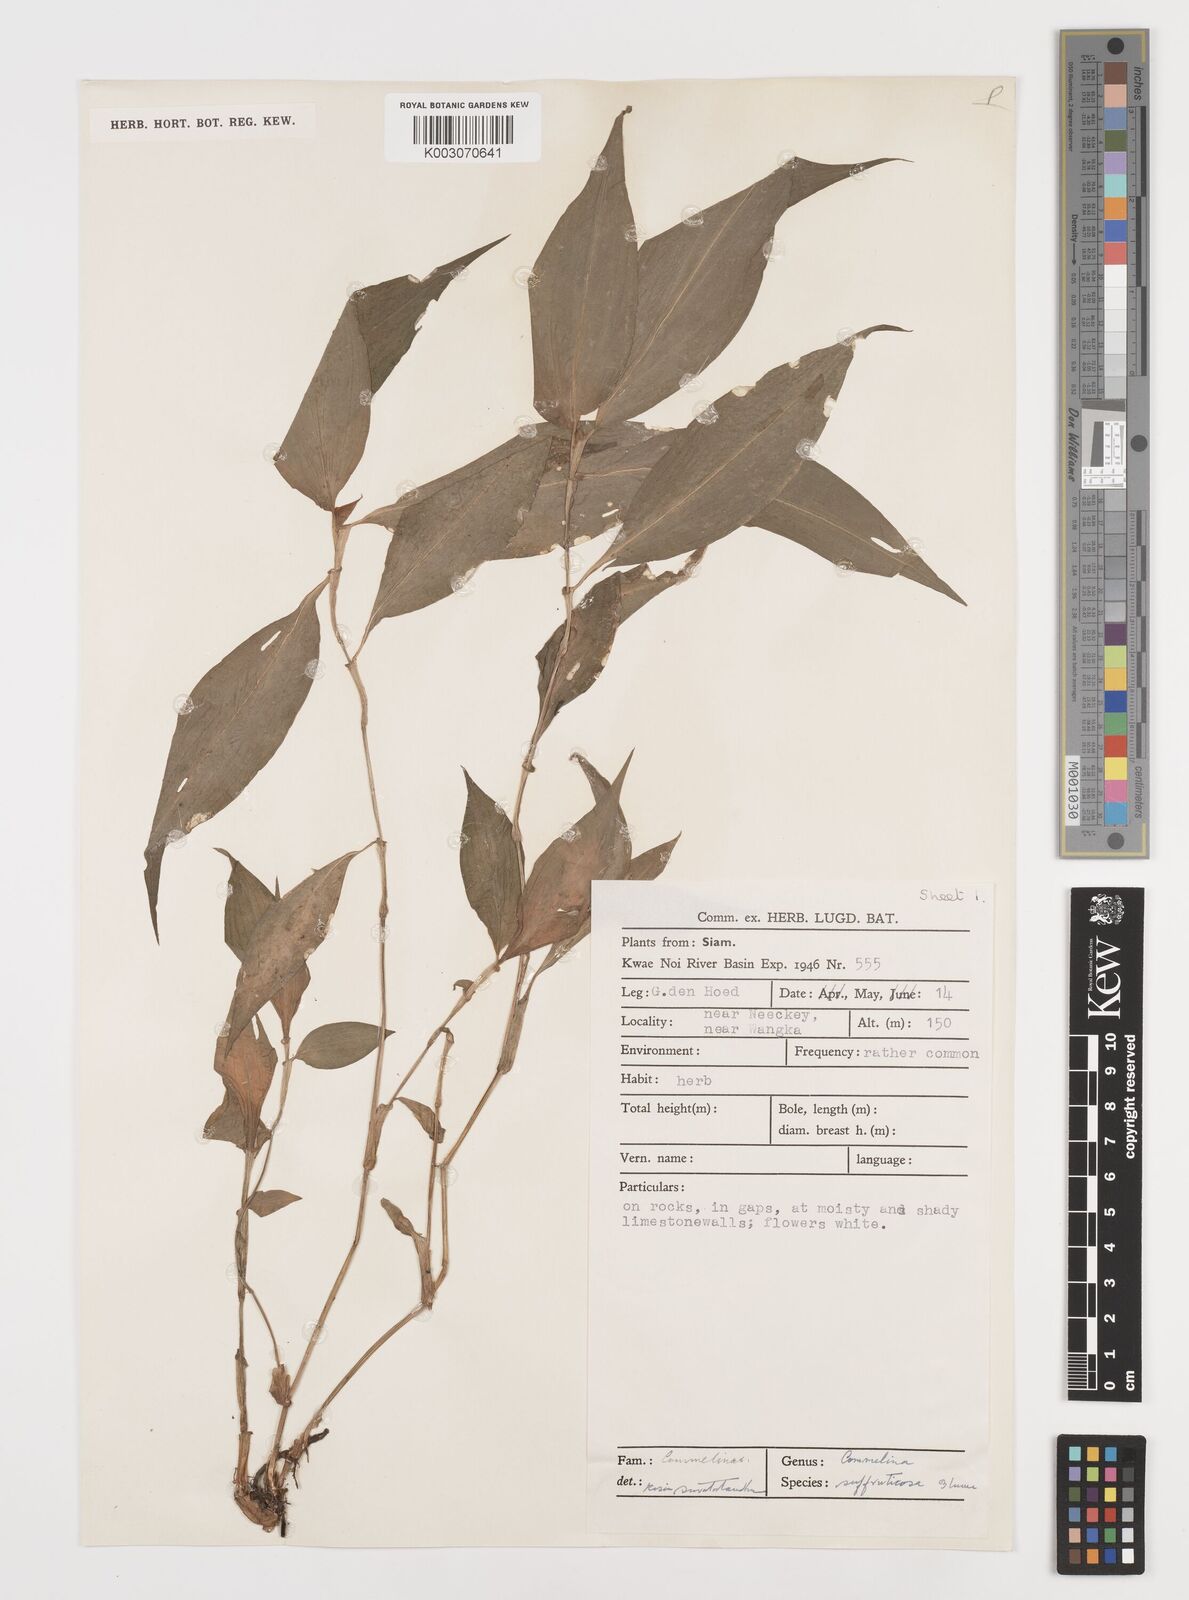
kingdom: Plantae
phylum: Tracheophyta
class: Liliopsida
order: Commelinales
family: Commelinaceae
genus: Commelina
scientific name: Commelina suffruticosa
